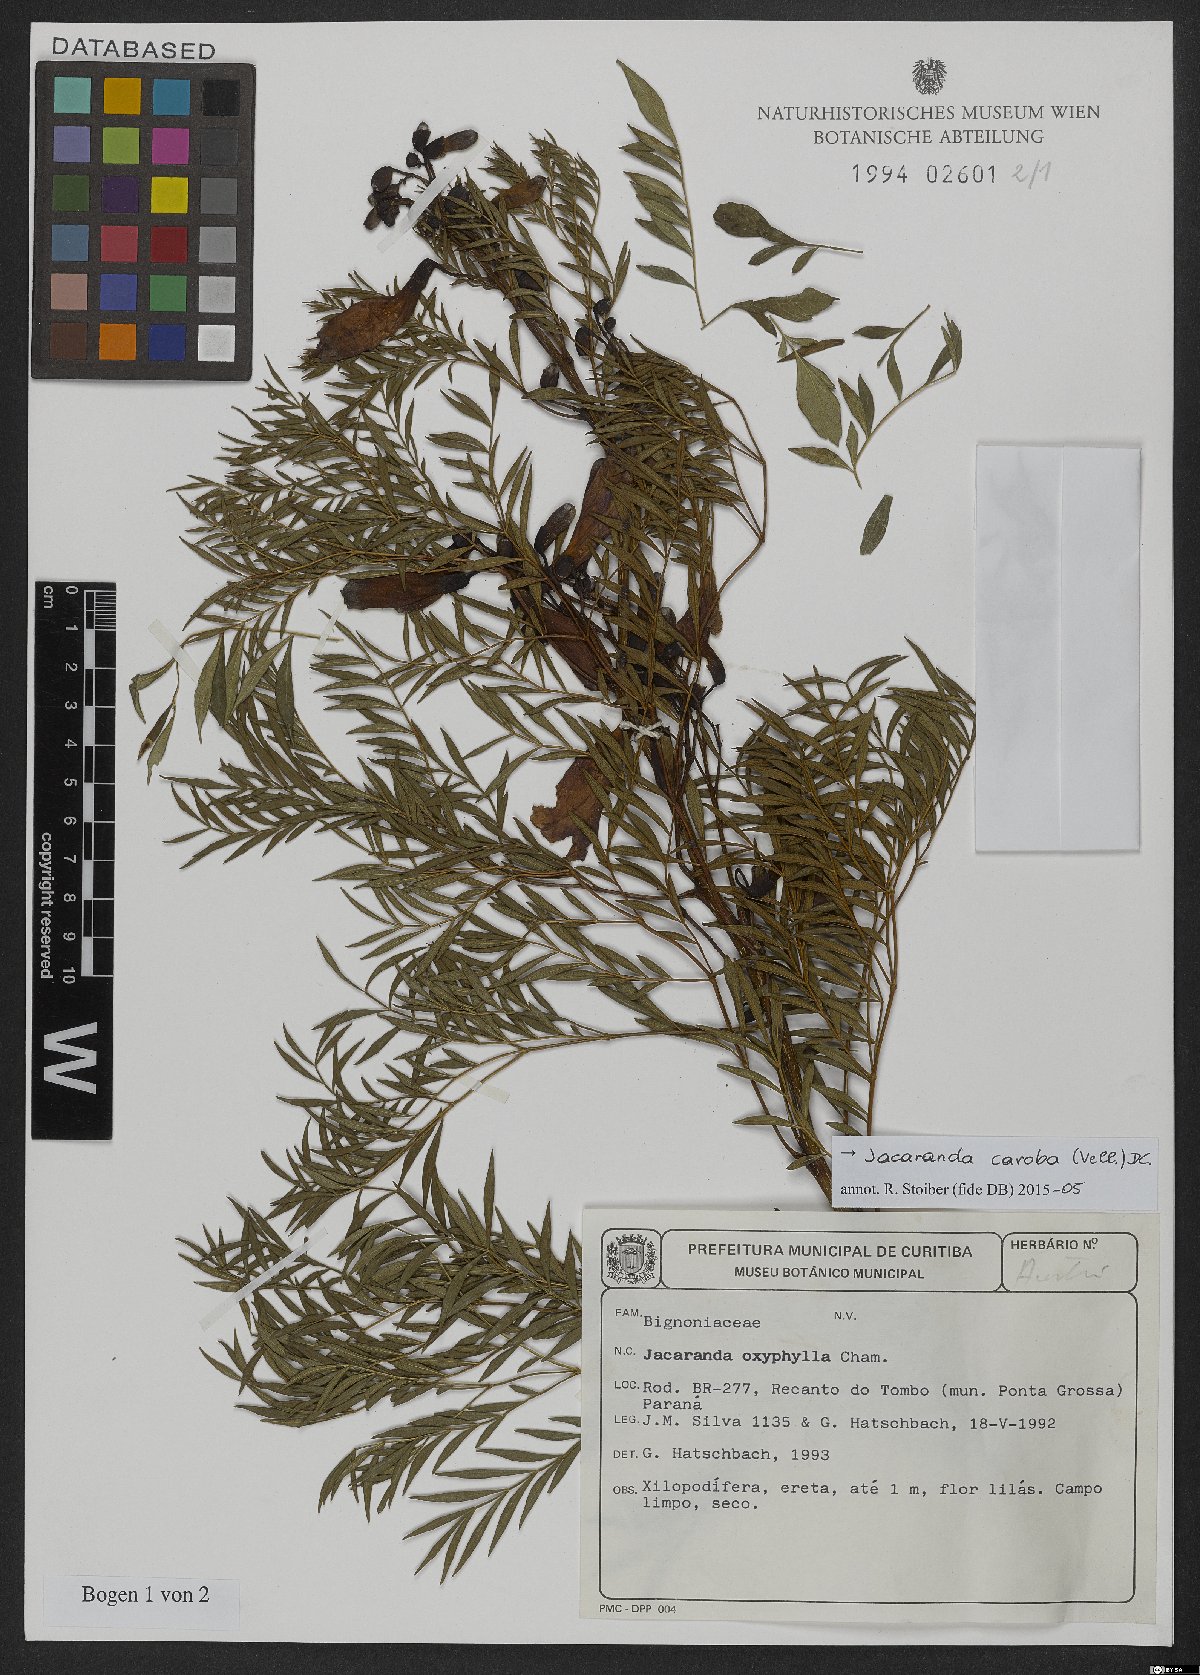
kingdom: Plantae
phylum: Tracheophyta
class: Magnoliopsida
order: Lamiales
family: Bignoniaceae
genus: Jacaranda
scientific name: Jacaranda caroba
